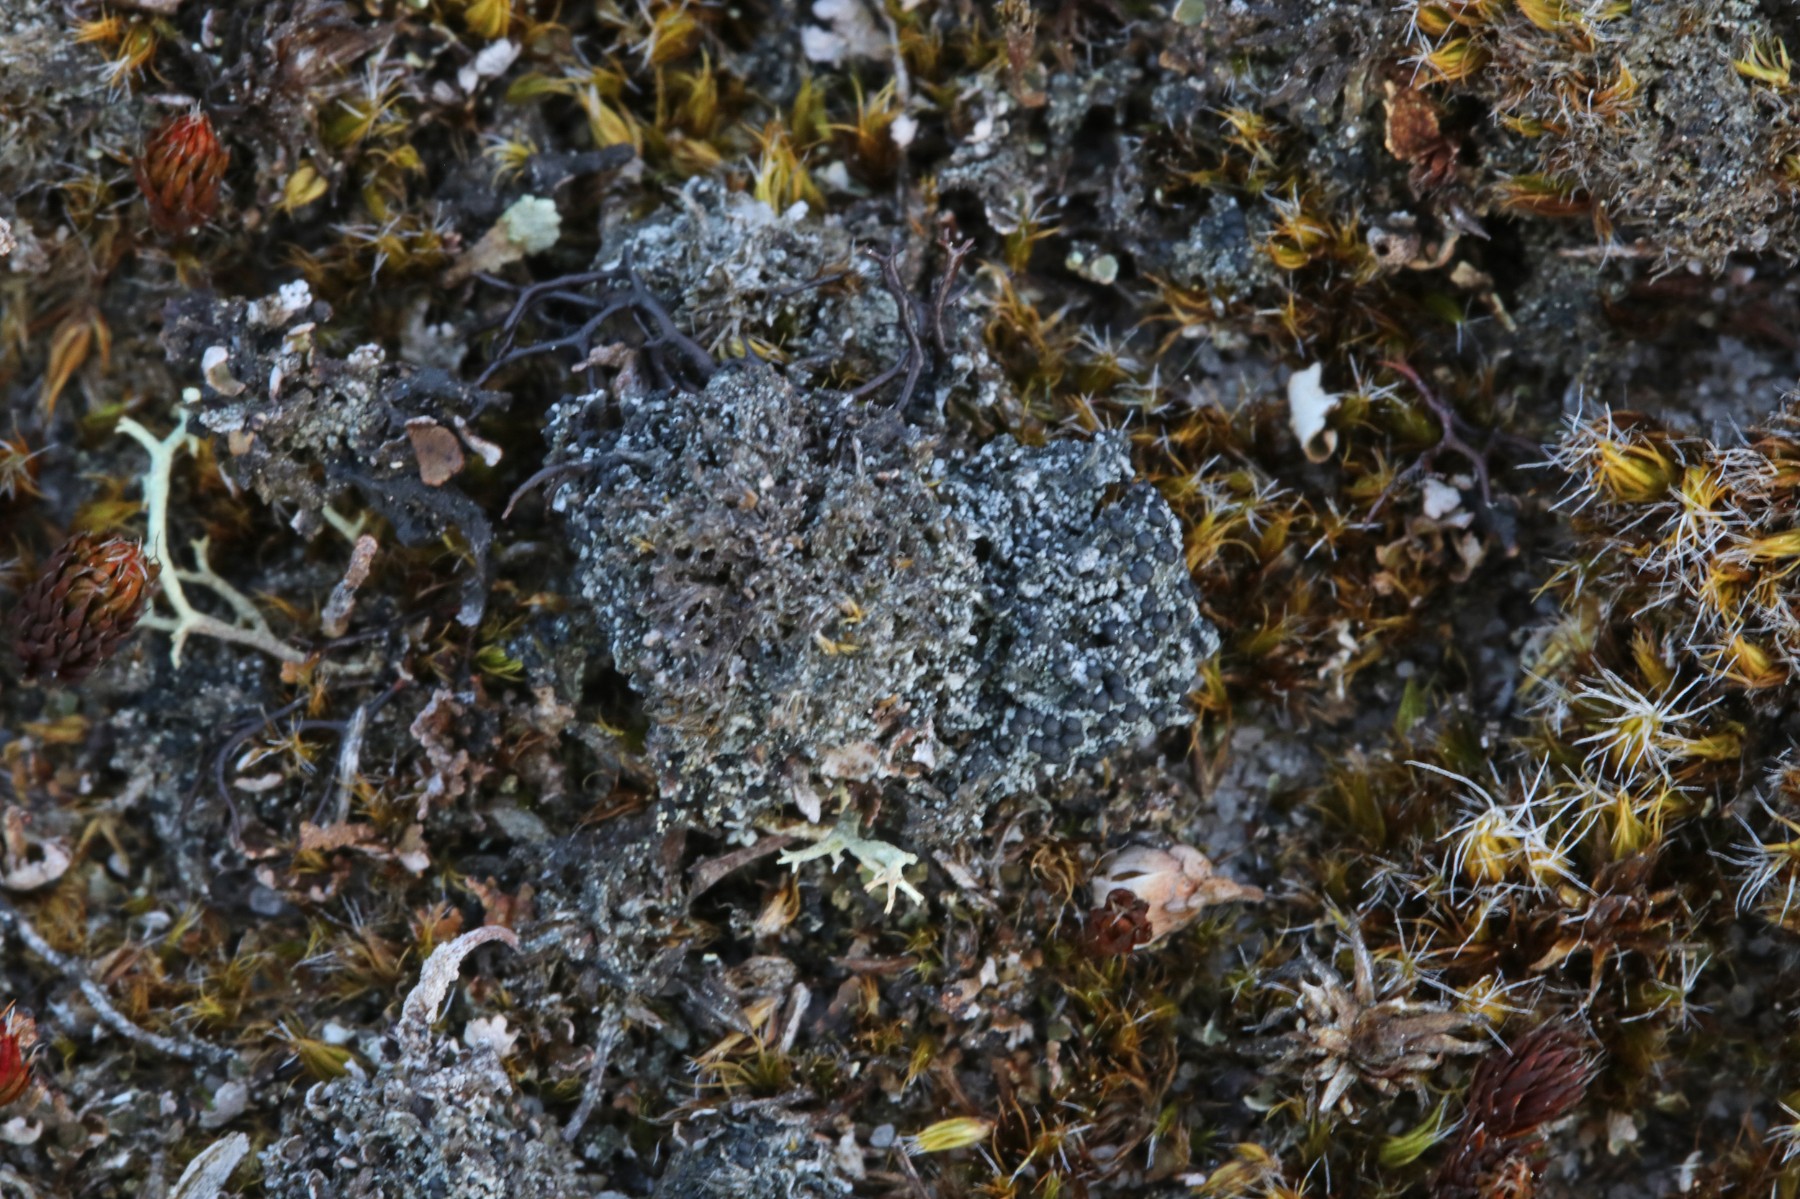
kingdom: Fungi
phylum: Ascomycota
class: Lecanoromycetes
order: Lecanorales
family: Byssolomataceae
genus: Micarea
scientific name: Micarea lignaria
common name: tørve-knaplav
